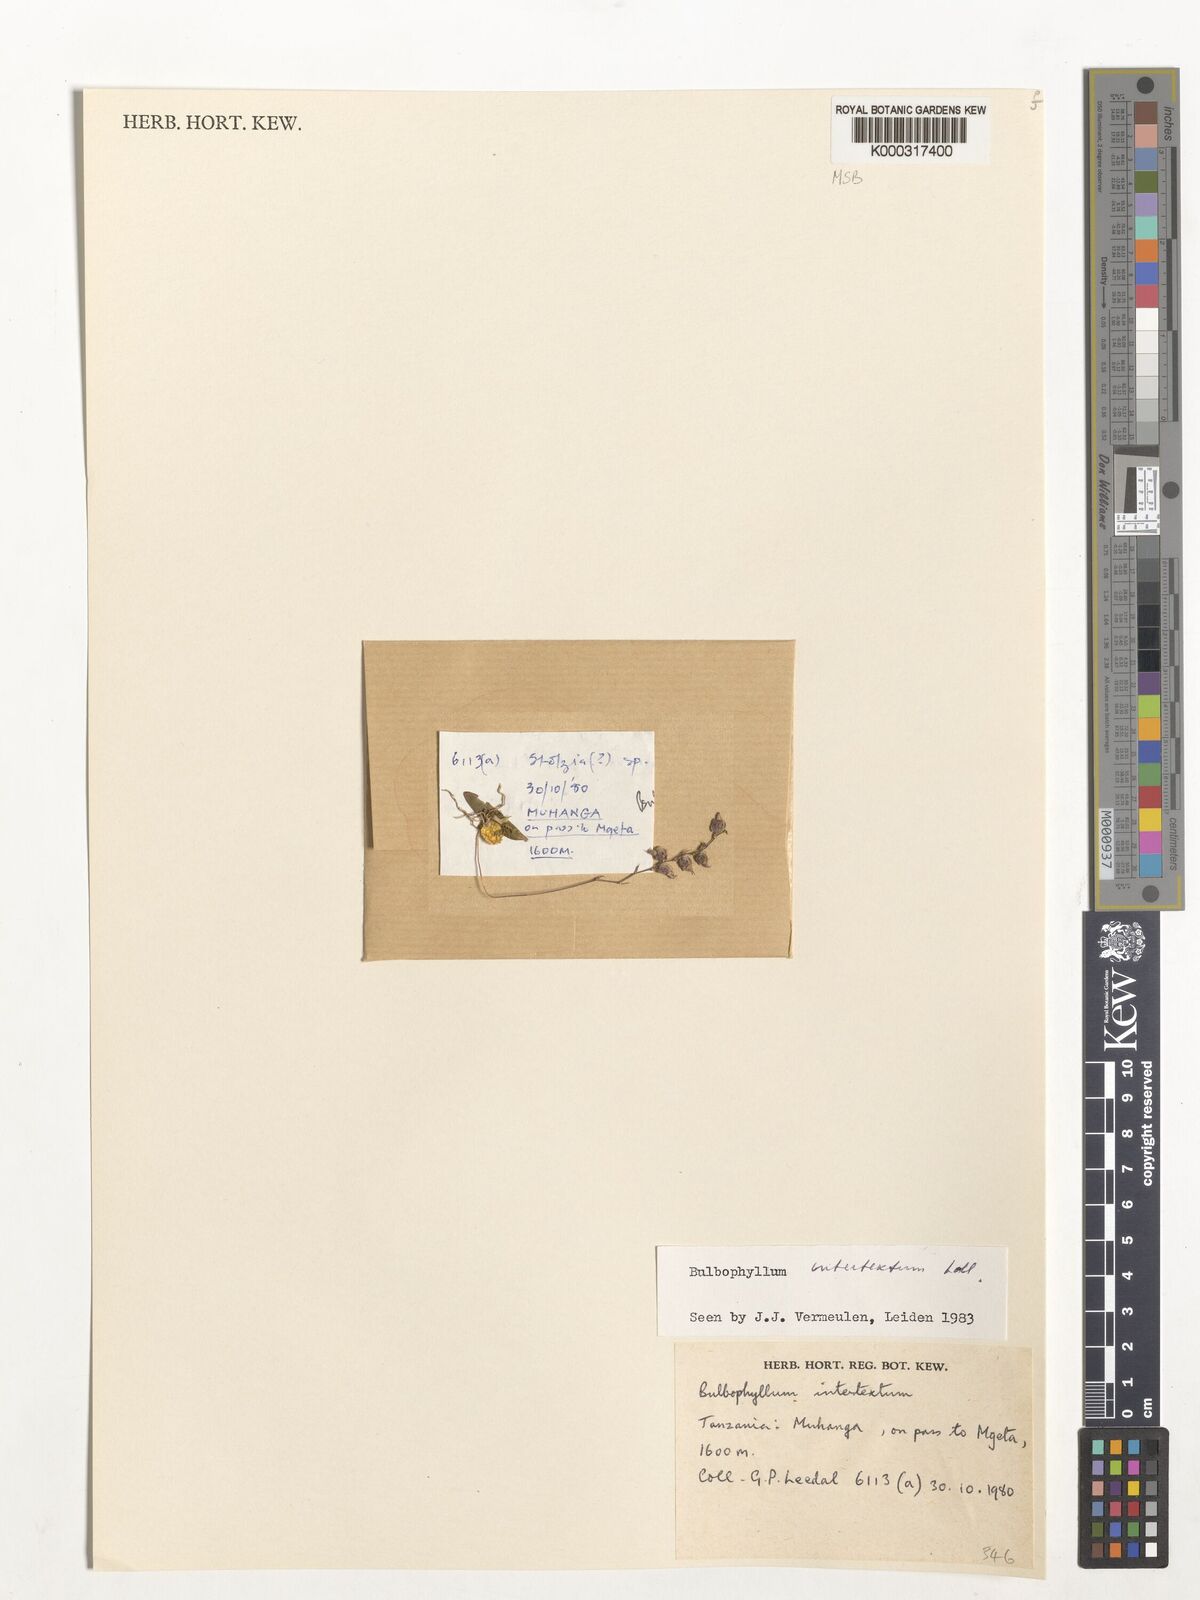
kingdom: Plantae
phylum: Tracheophyta
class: Liliopsida
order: Asparagales
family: Orchidaceae
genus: Bulbophyllum
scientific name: Bulbophyllum intertextum
